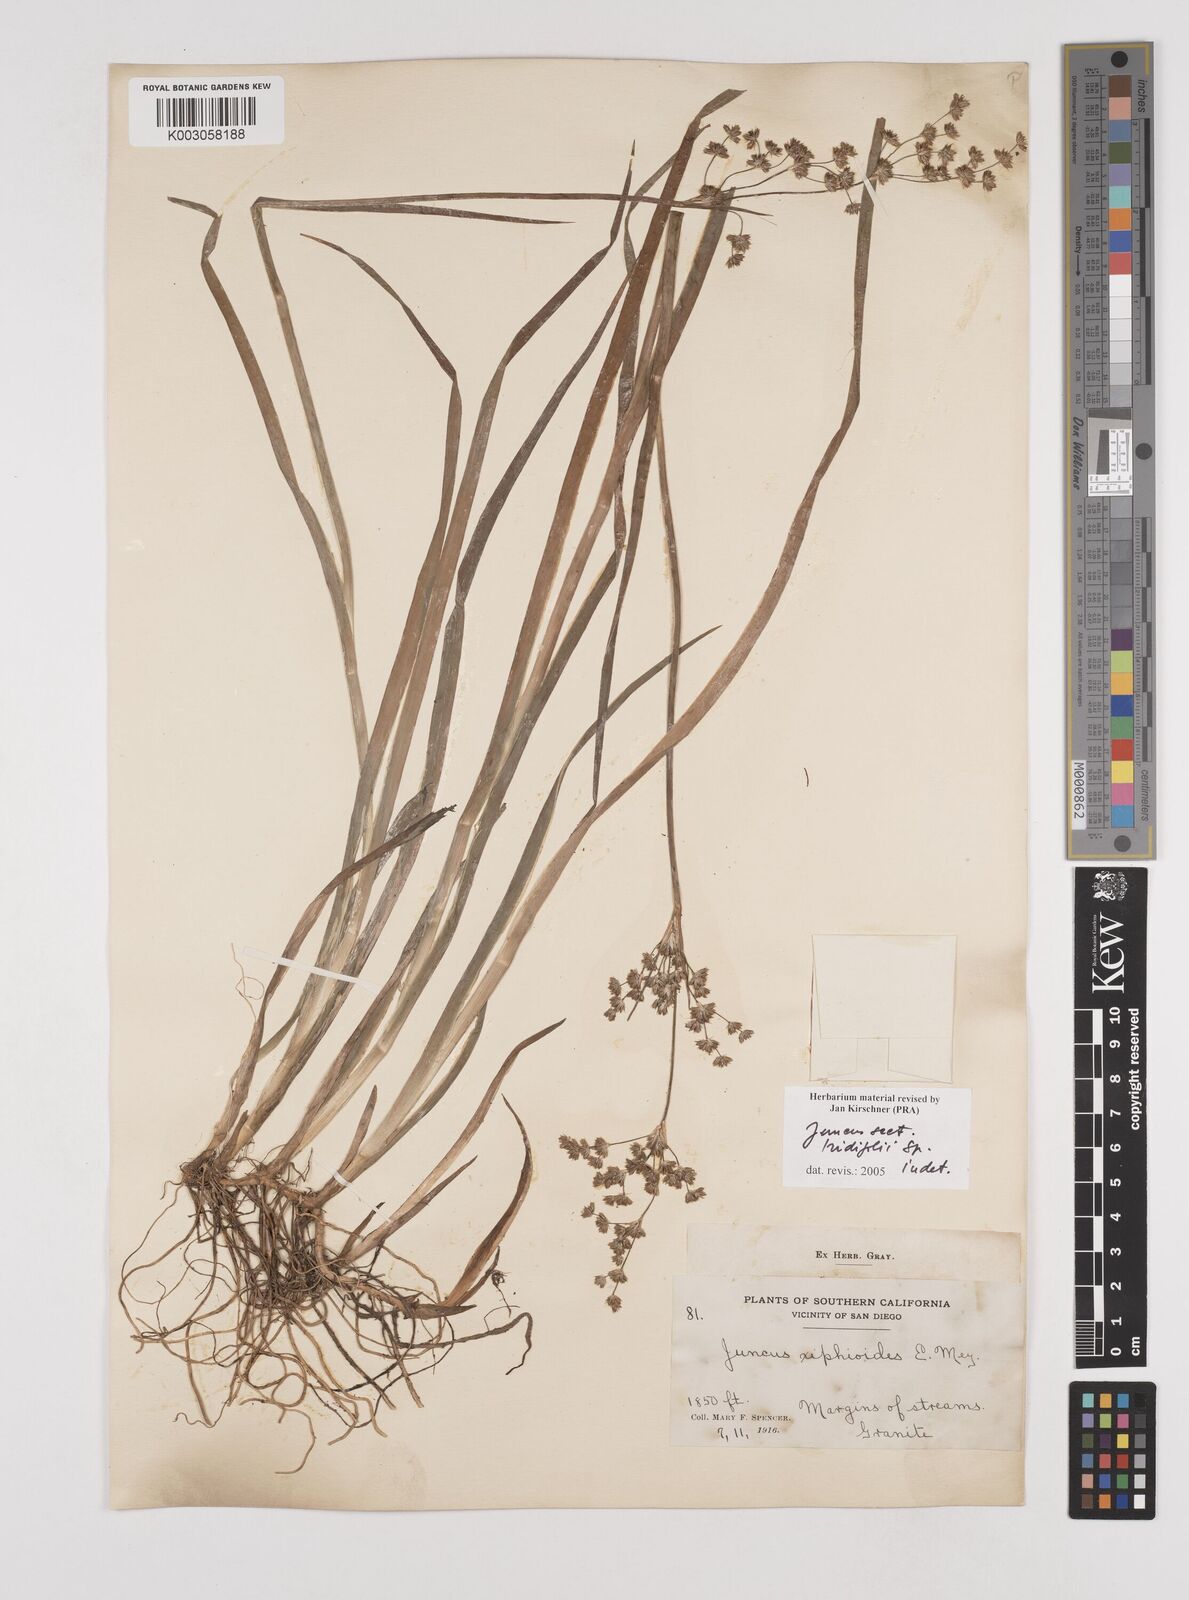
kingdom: Plantae
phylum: Tracheophyta
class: Liliopsida
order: Poales
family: Juncaceae
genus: Juncus
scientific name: Juncus
